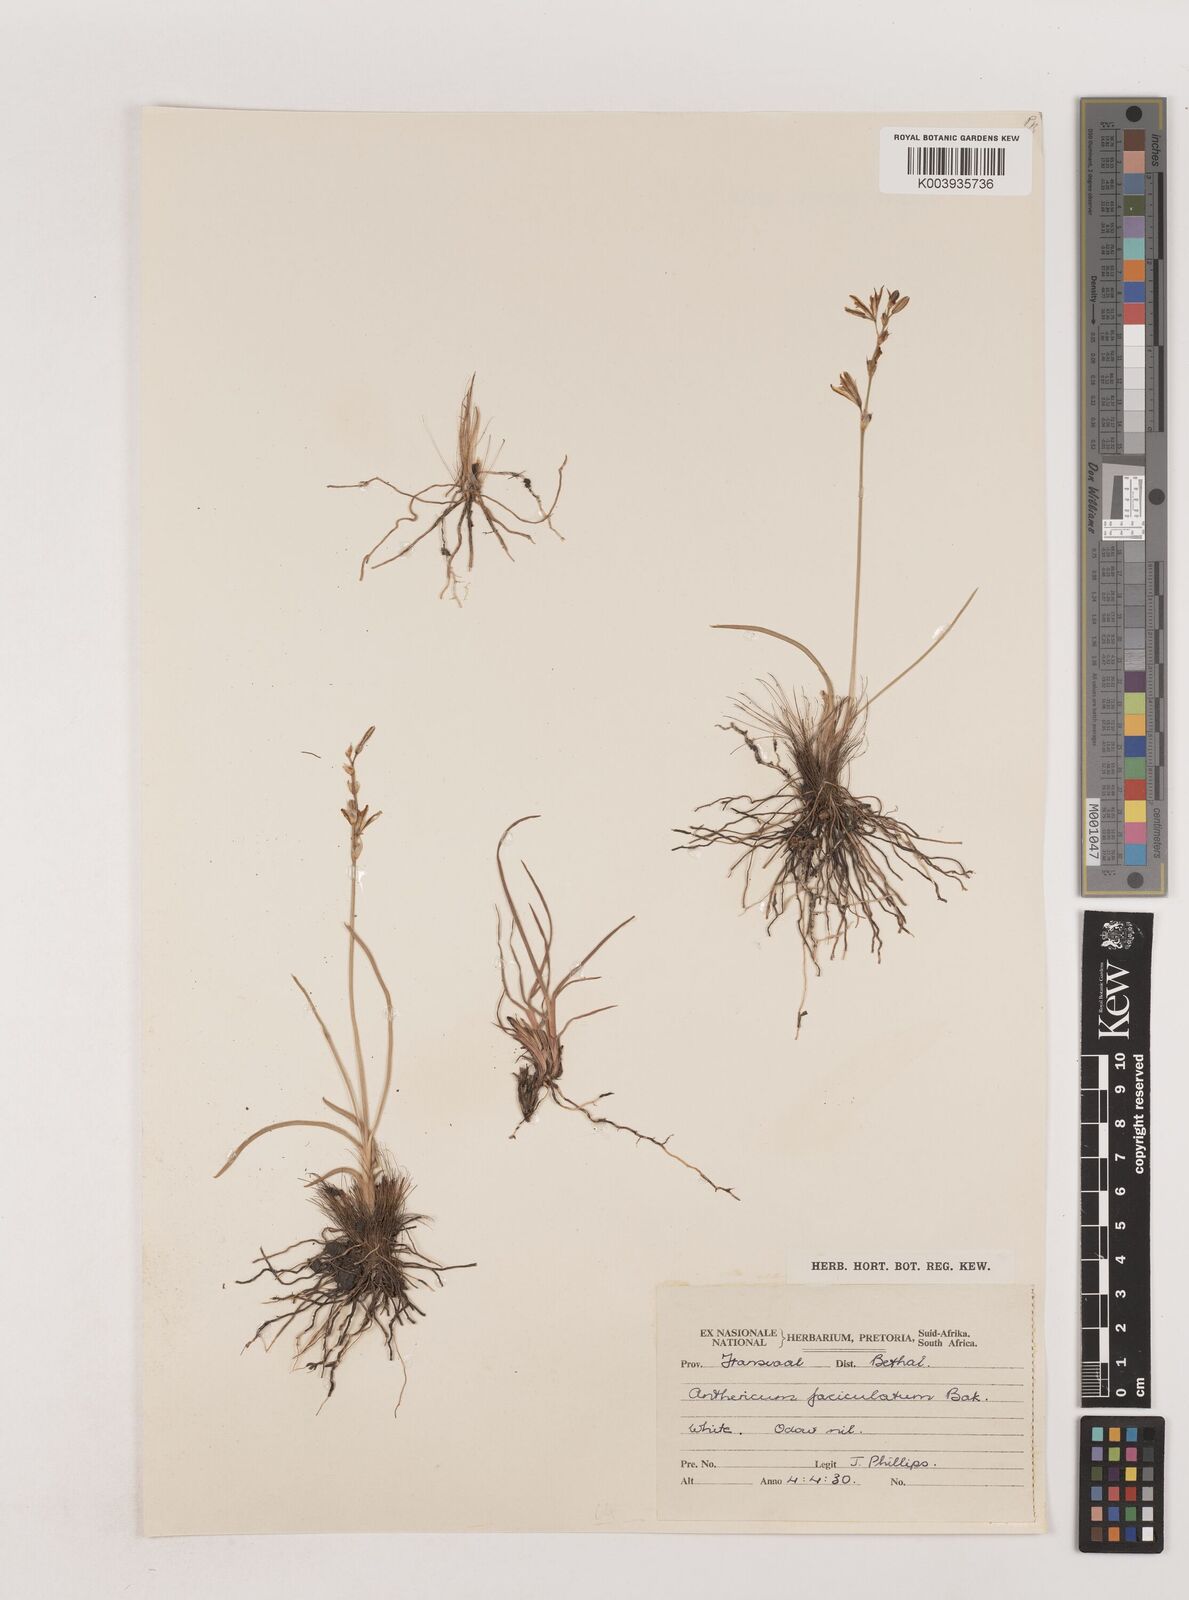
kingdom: Plantae
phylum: Tracheophyta
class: Liliopsida
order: Asparagales
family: Asparagaceae
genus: Chlorophytum
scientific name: Chlorophytum fasciculatum
